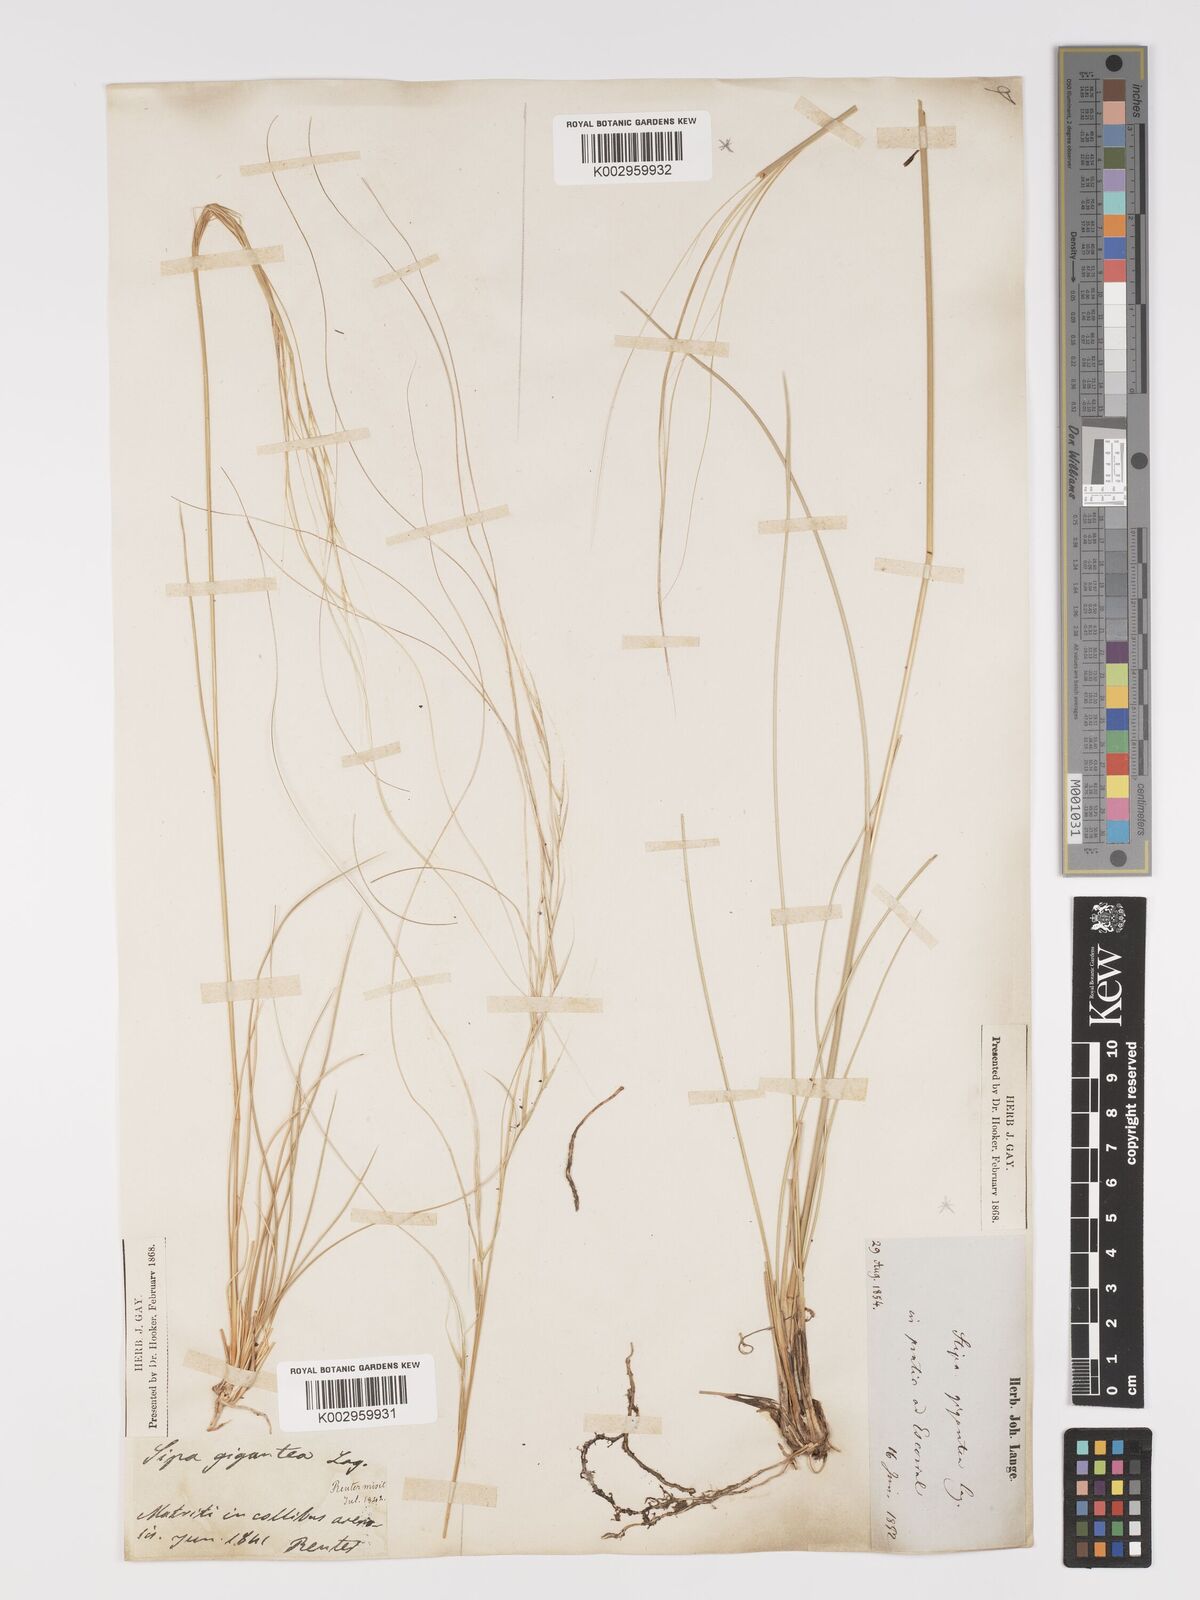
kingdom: Plantae
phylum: Tracheophyta
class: Liliopsida
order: Poales
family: Poaceae
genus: Stipa
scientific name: Stipa
